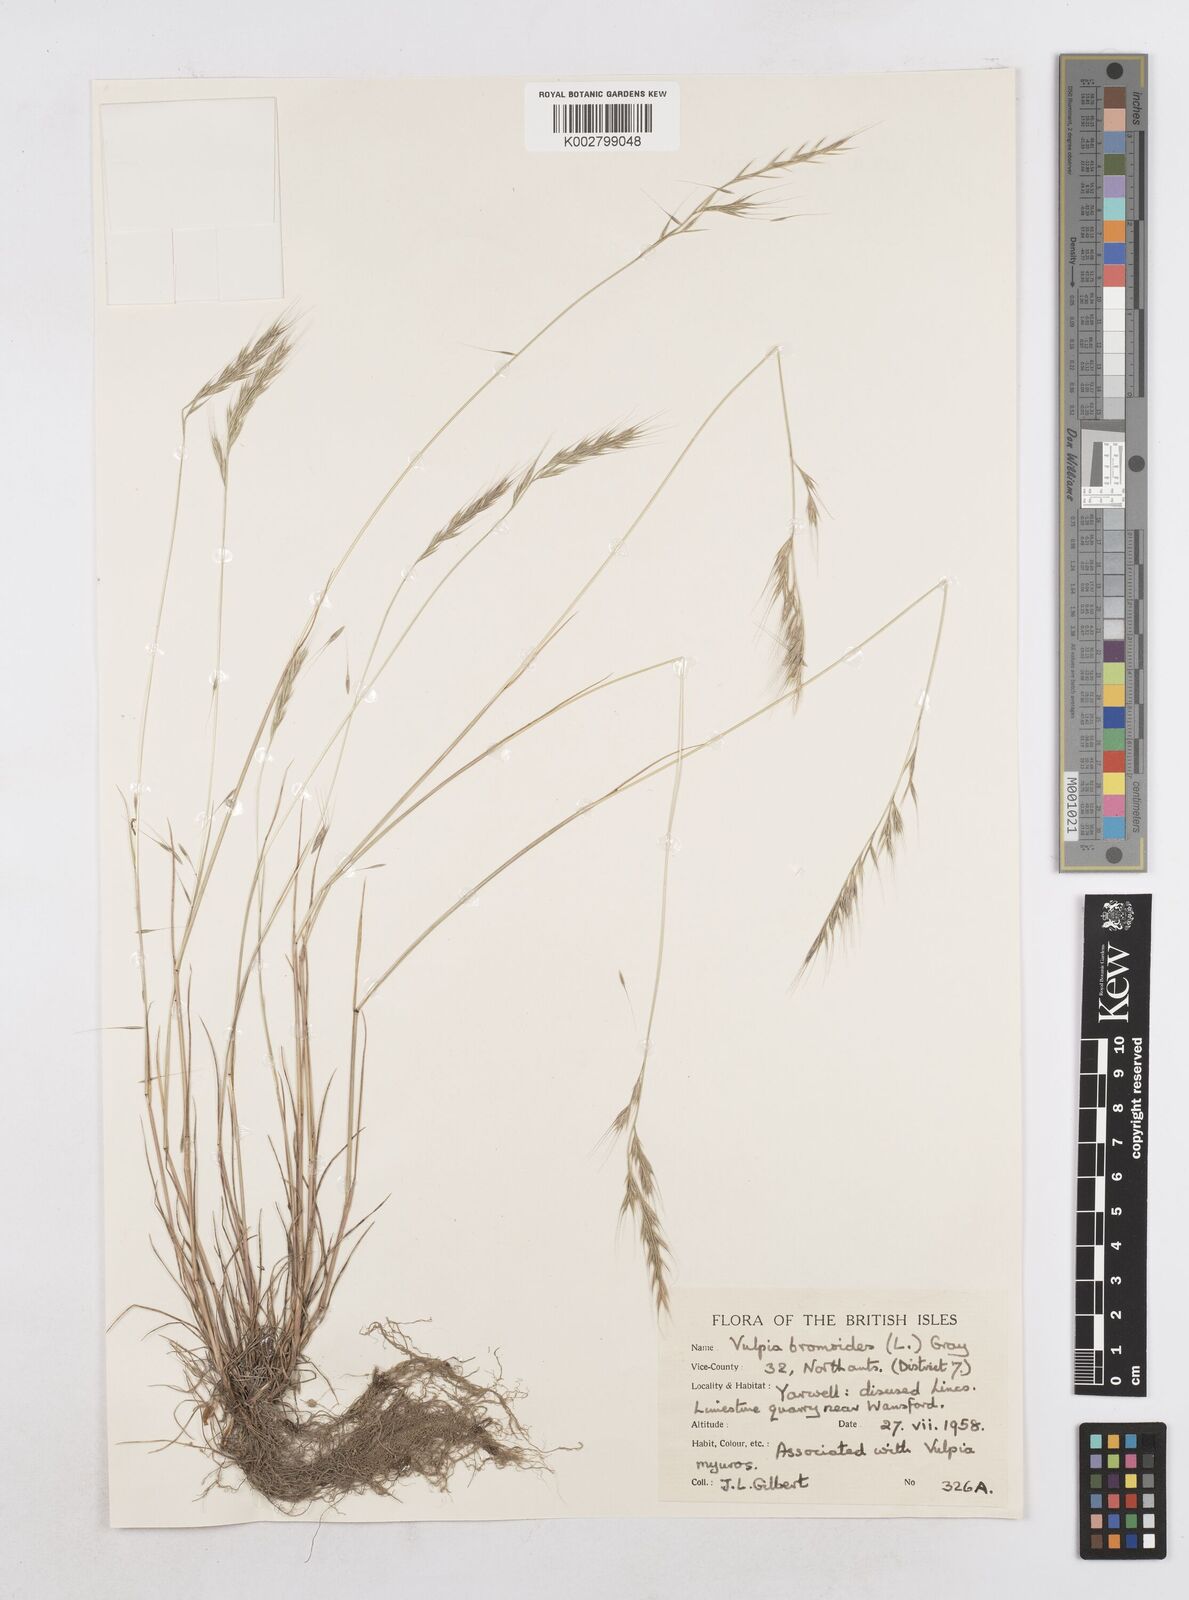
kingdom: Plantae
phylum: Tracheophyta
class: Liliopsida
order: Poales
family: Poaceae
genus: Festuca
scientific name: Festuca bromoides
